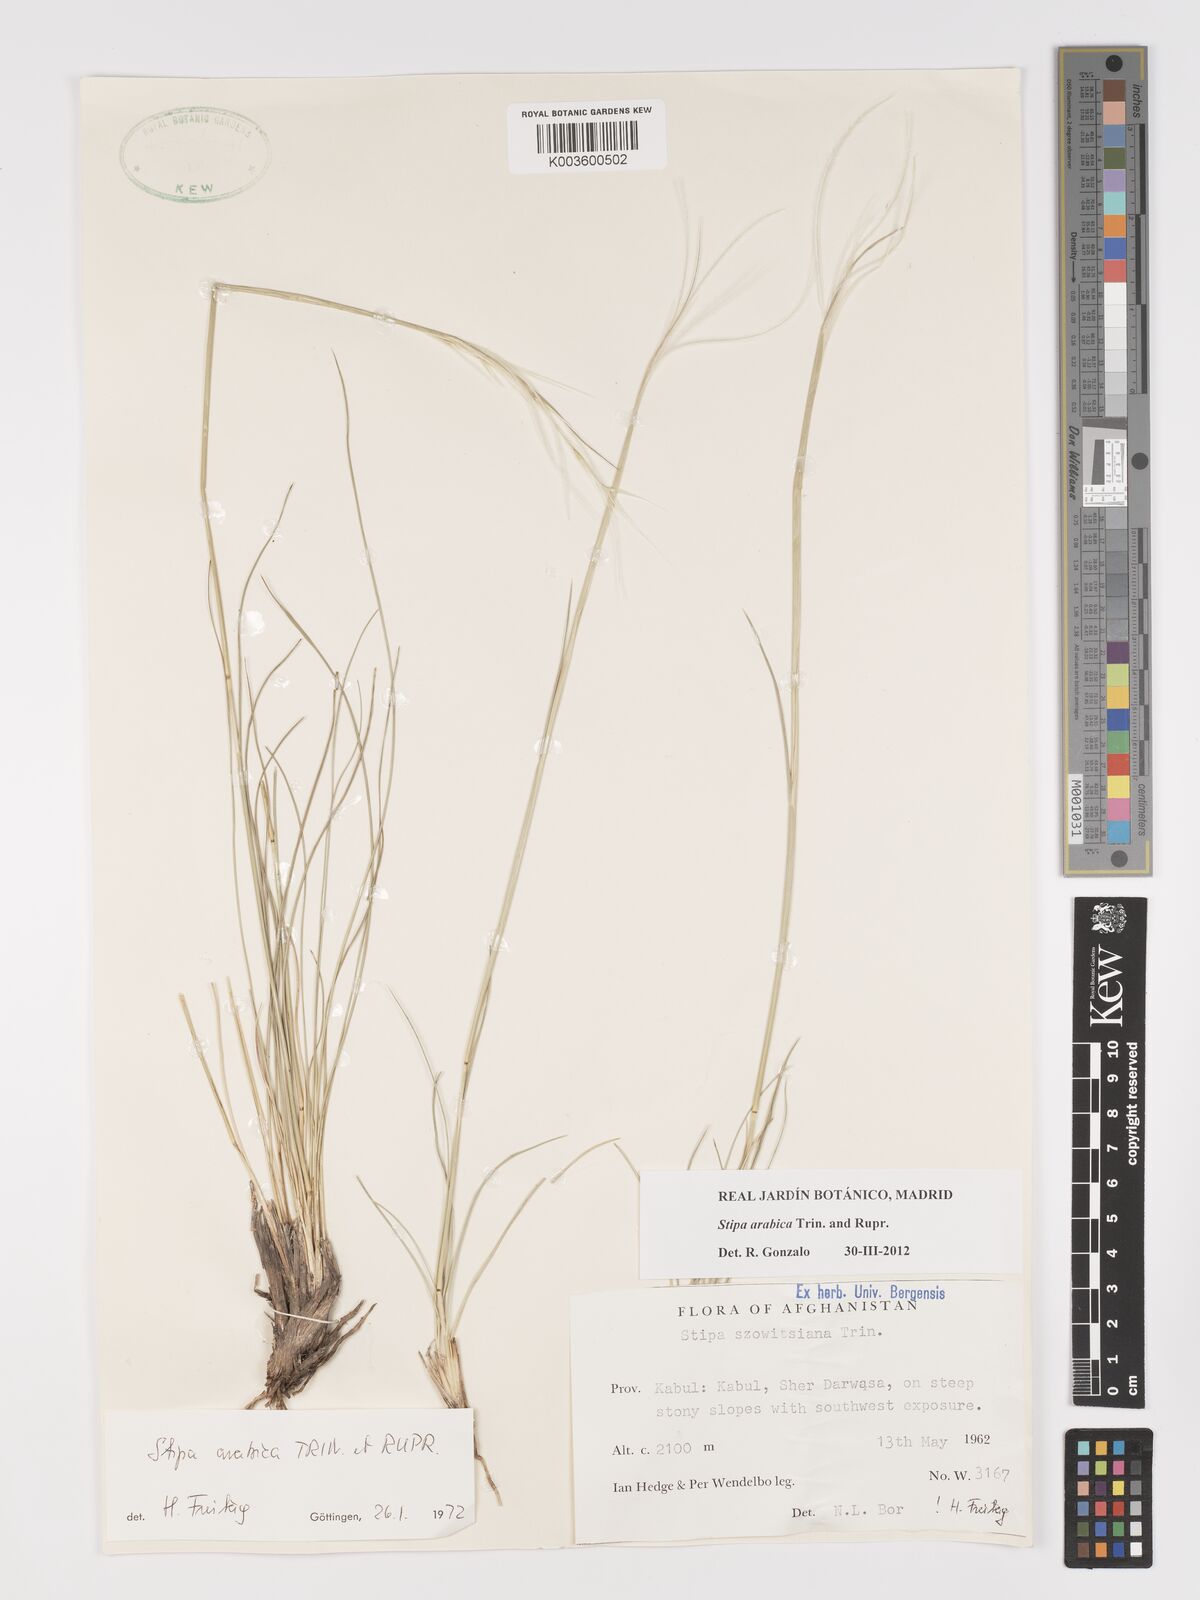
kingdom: Plantae
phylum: Tracheophyta
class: Liliopsida
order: Poales
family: Poaceae
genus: Stipa
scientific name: Stipa arabica
